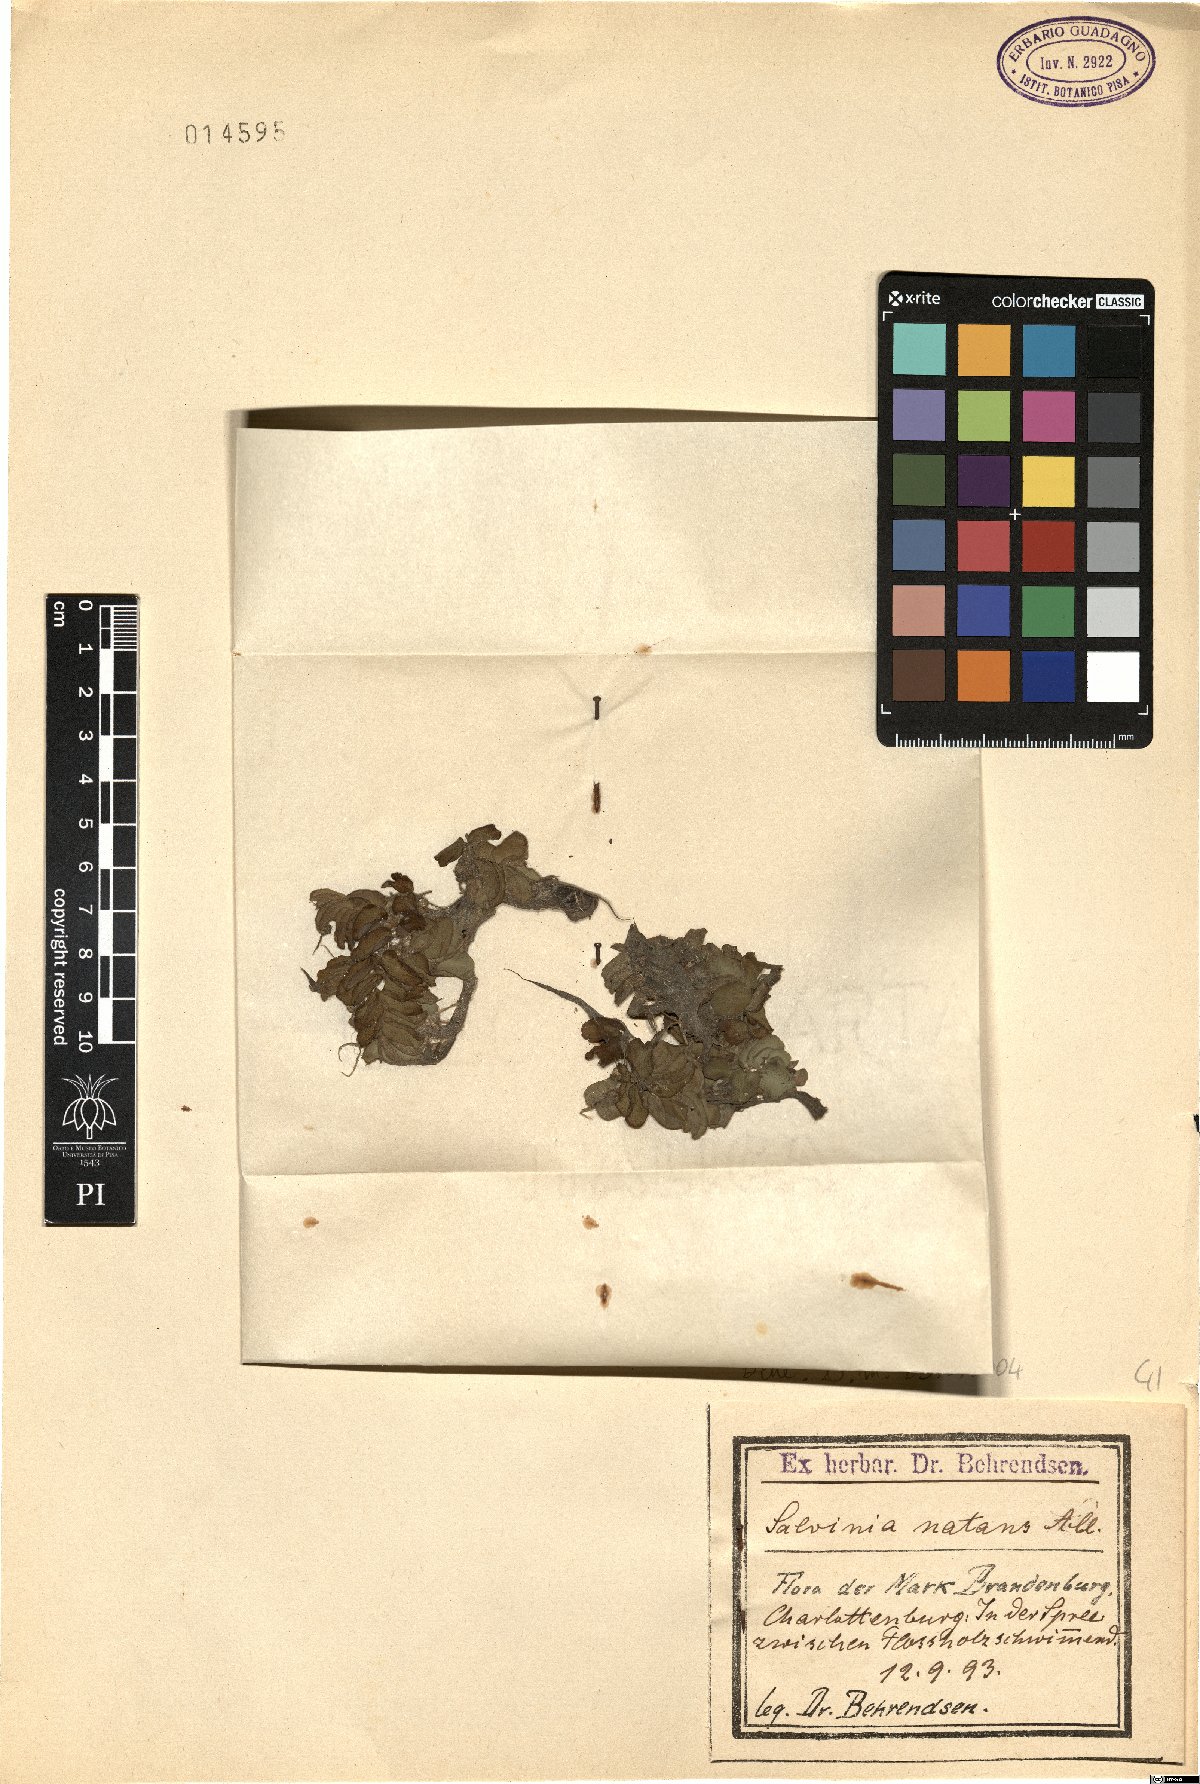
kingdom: Plantae
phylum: Tracheophyta
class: Polypodiopsida
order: Salviniales
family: Salviniaceae
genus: Salvinia
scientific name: Salvinia natans
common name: Floating fern
